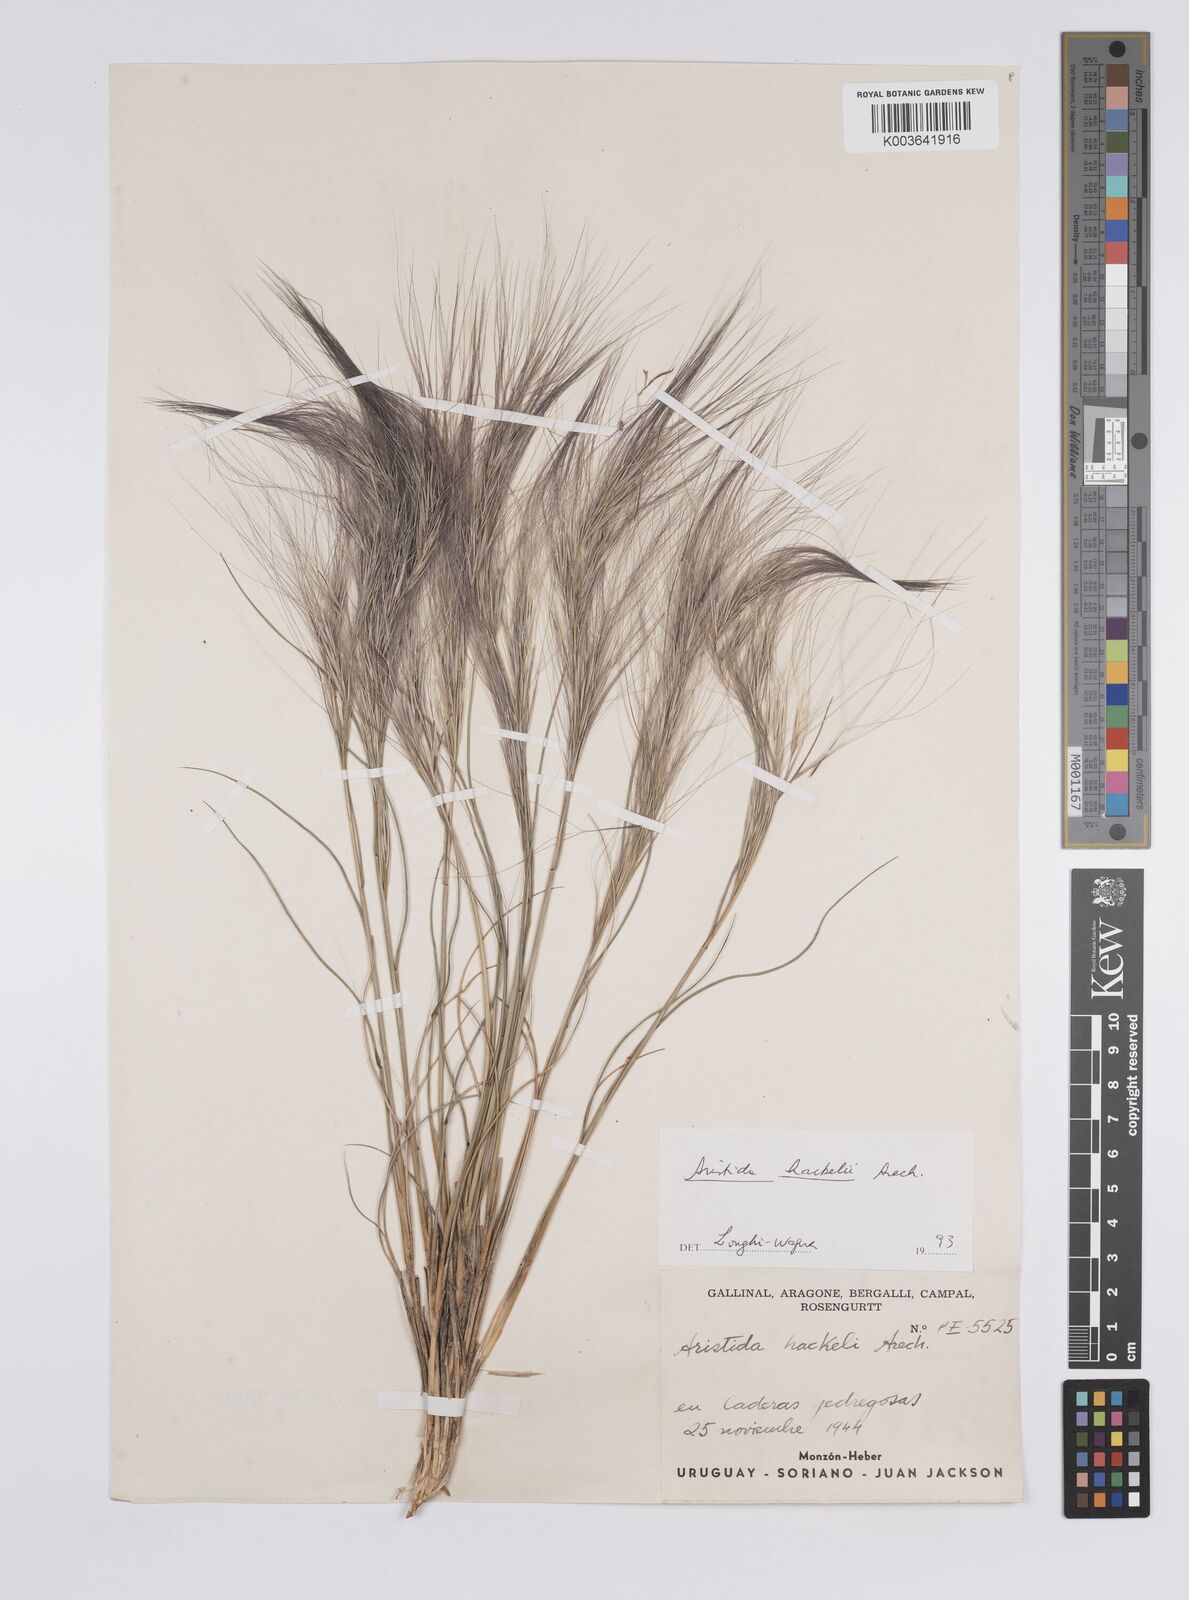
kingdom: Plantae
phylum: Tracheophyta
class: Liliopsida
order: Poales
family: Poaceae
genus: Aristida
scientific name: Aristida hackelii
